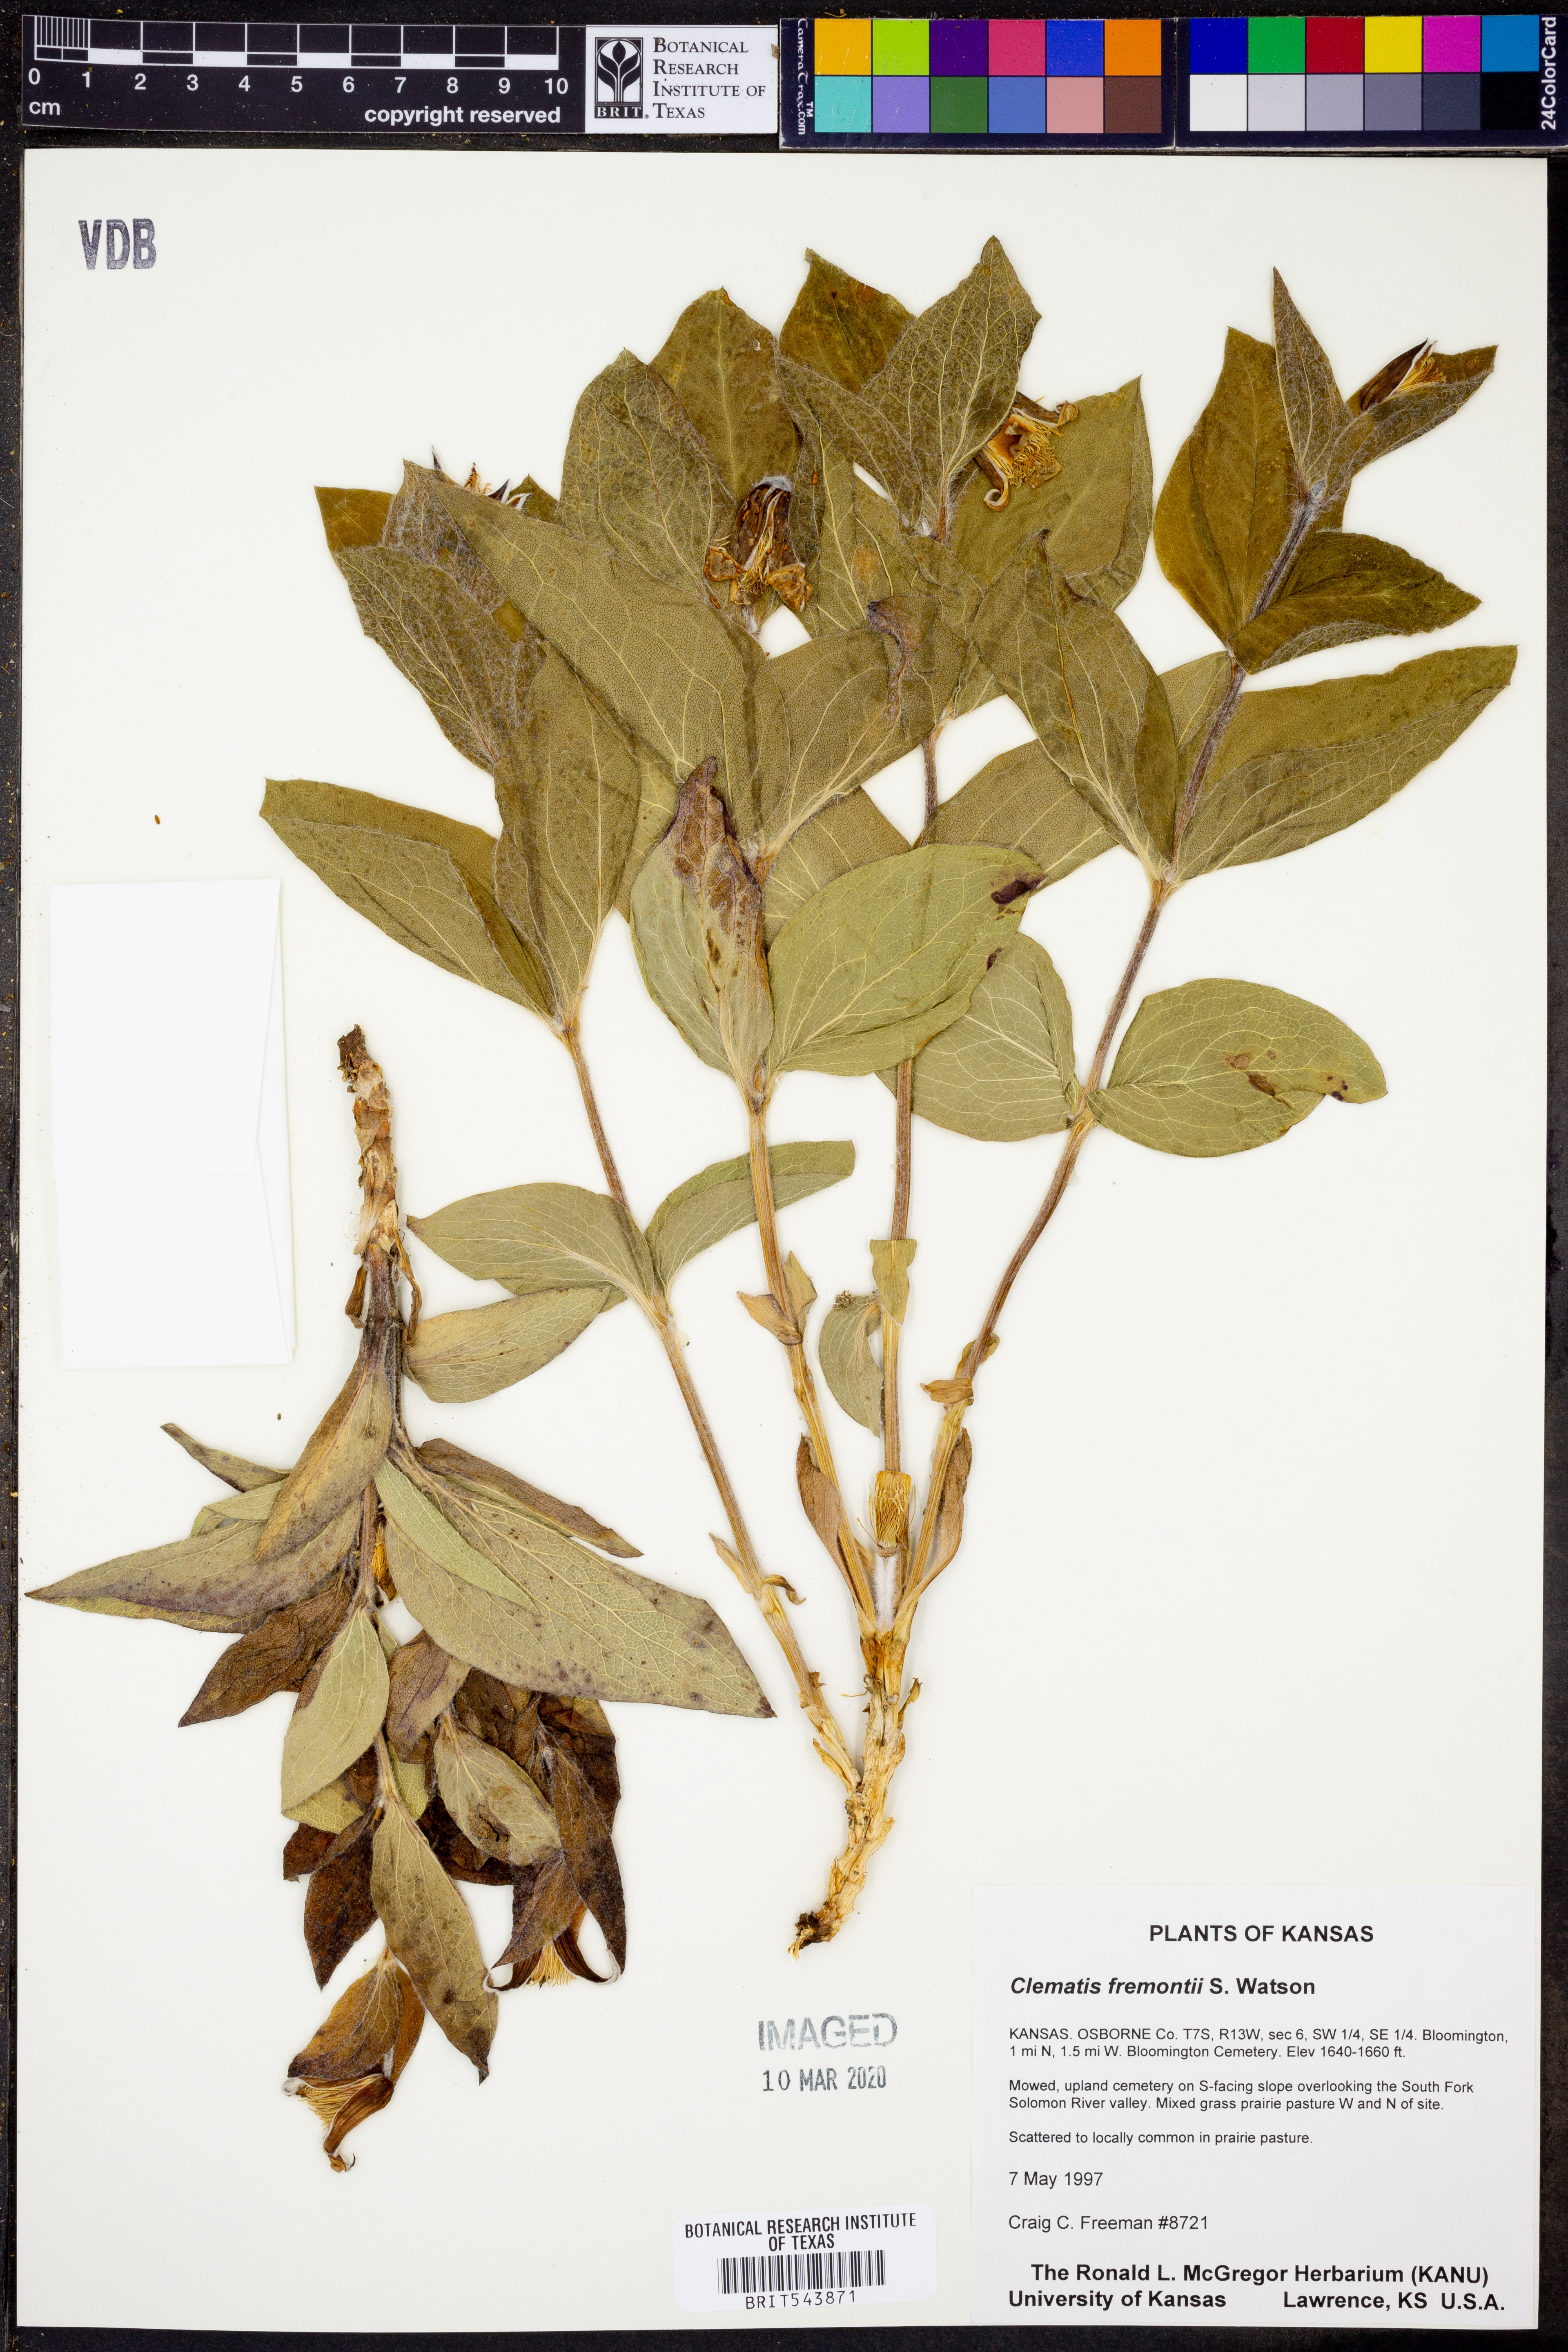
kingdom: Plantae
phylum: Tracheophyta
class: Magnoliopsida
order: Ranunculales
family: Ranunculaceae
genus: Clematis
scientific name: Clematis fremontii
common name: Fremont's clematis
